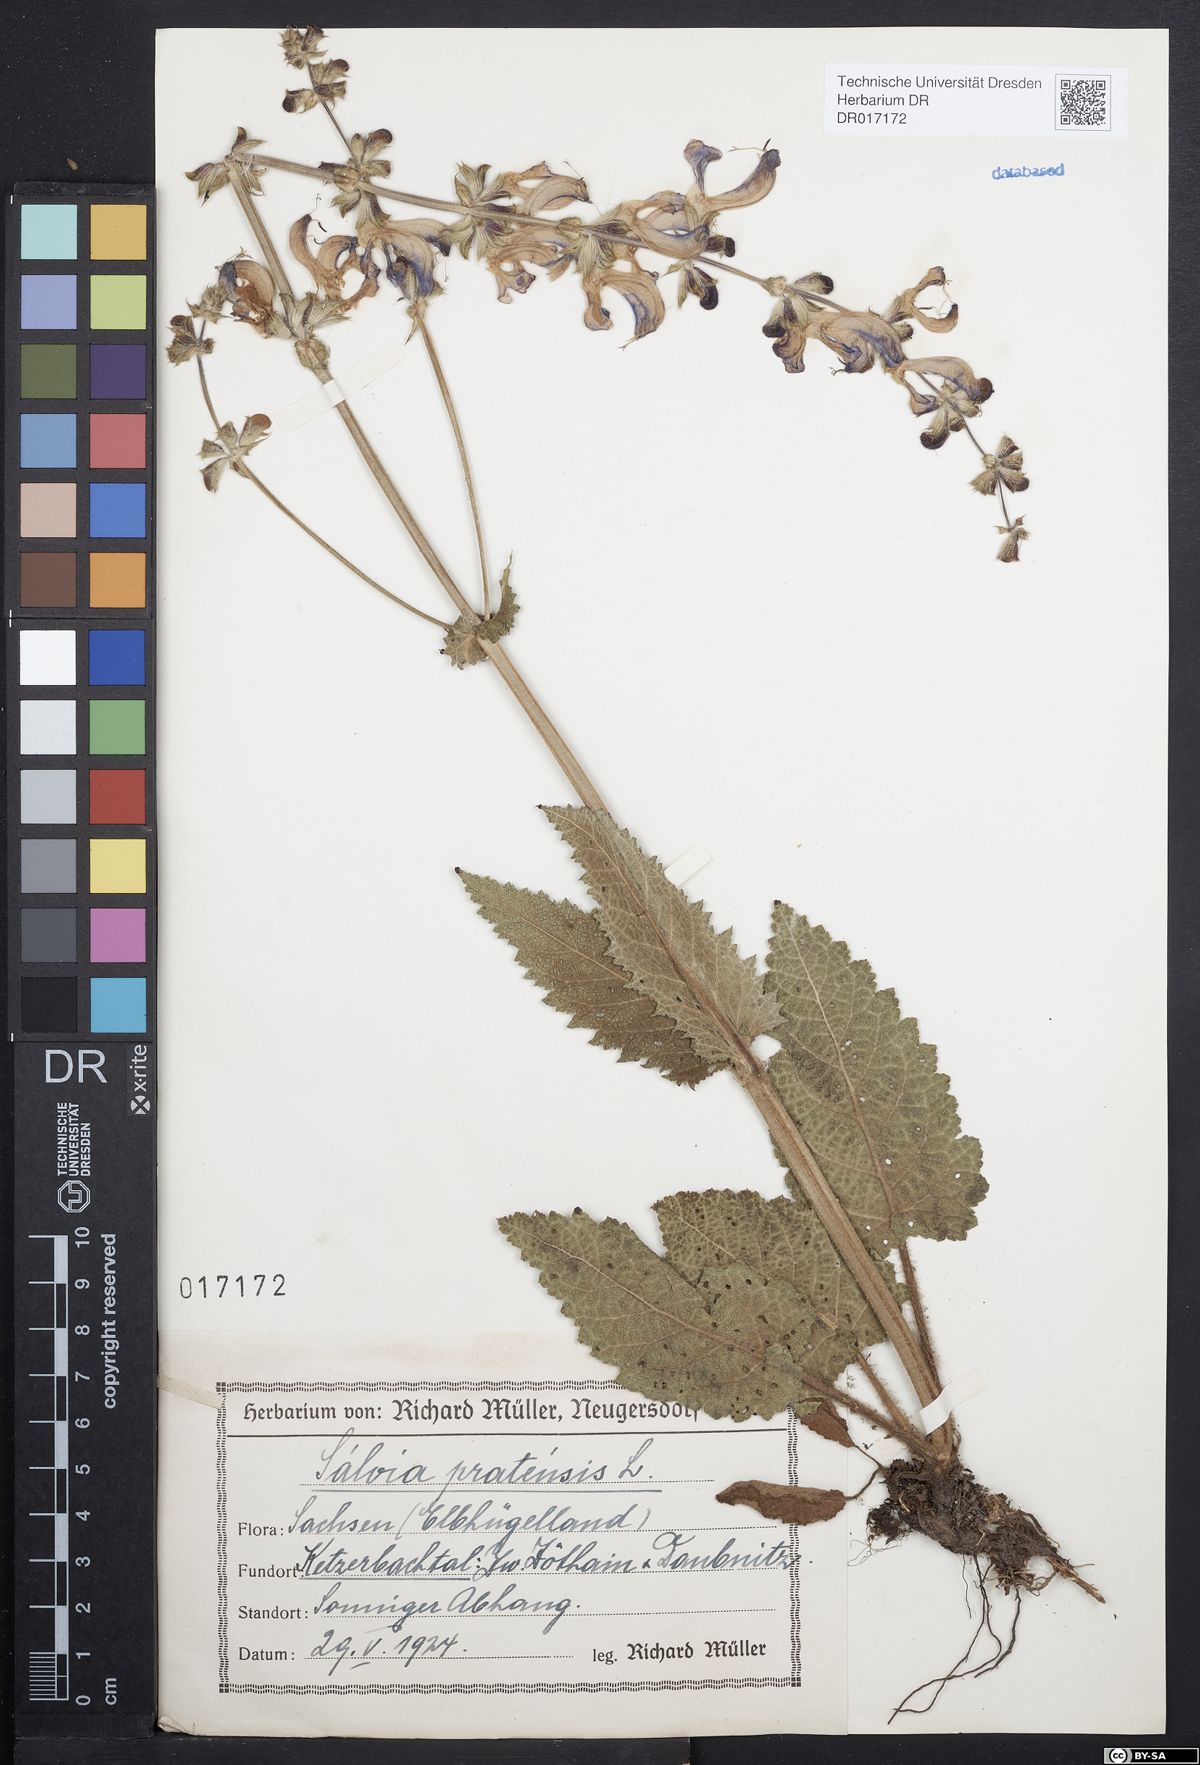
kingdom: Plantae
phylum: Tracheophyta
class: Magnoliopsida
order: Lamiales
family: Lamiaceae
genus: Salvia
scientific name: Salvia pratensis
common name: Meadow sage
